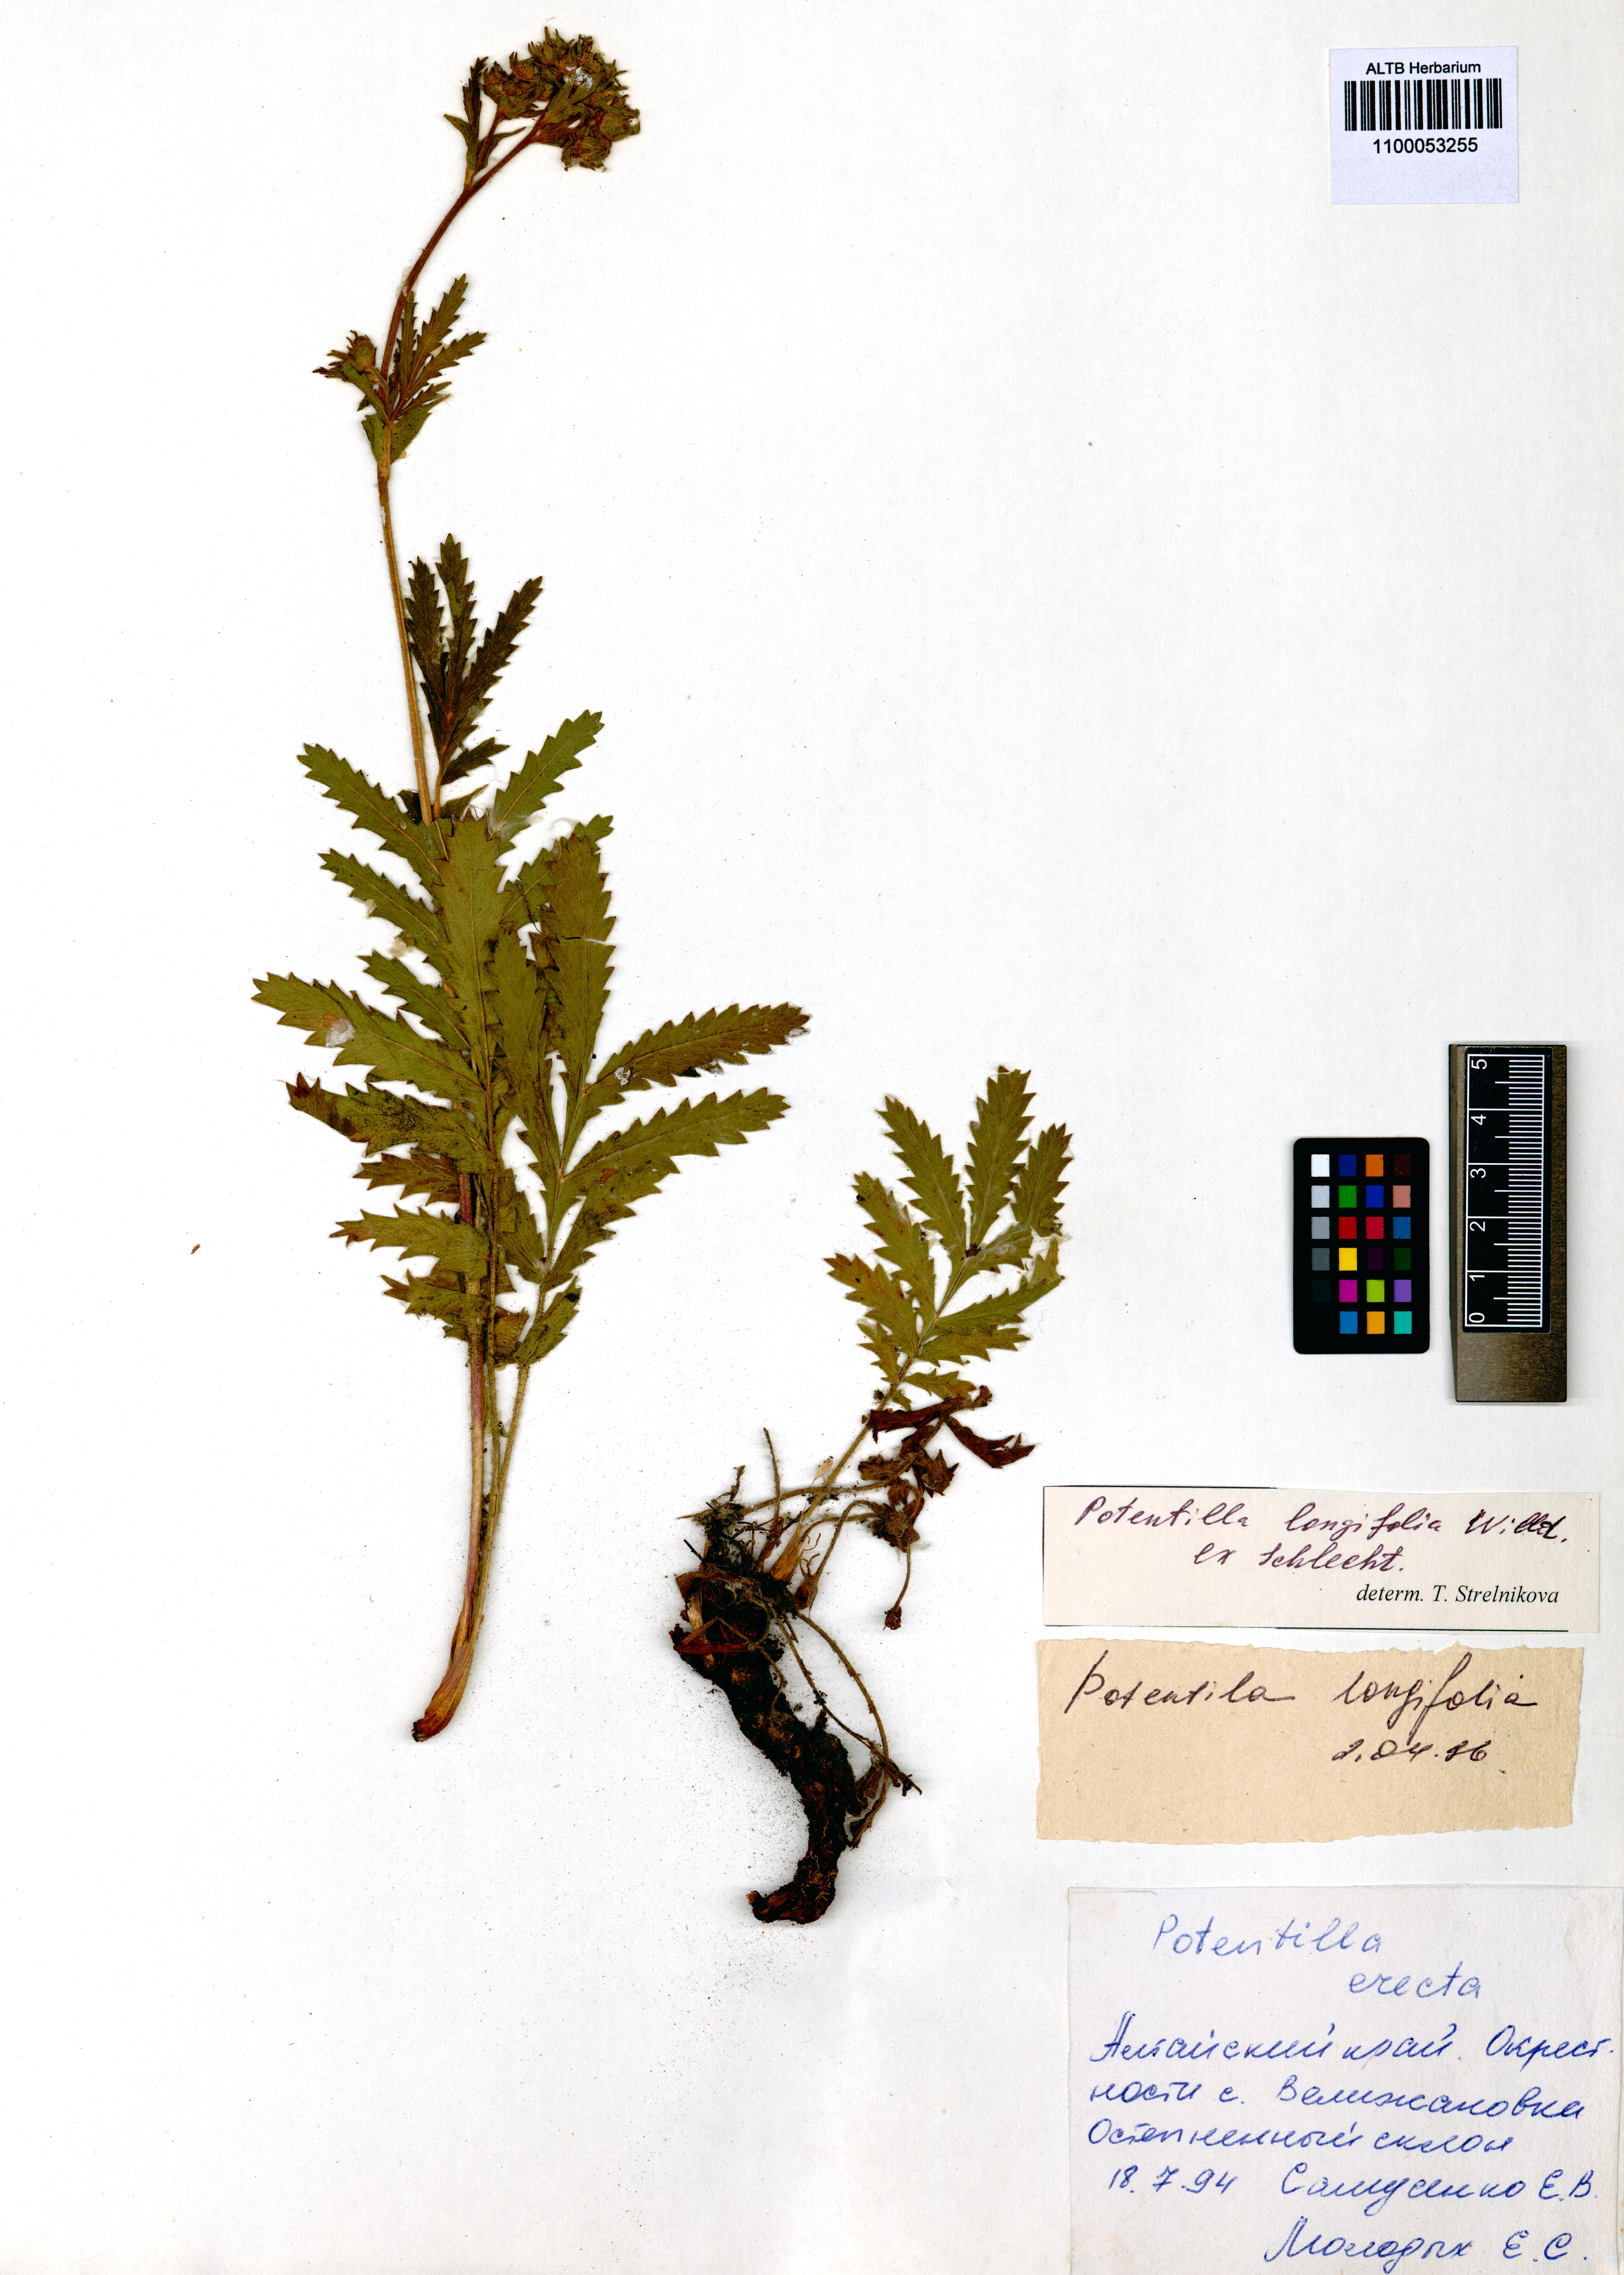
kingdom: Plantae
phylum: Tracheophyta
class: Magnoliopsida
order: Rosales
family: Rosaceae
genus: Potentilla
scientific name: Potentilla longifolia
